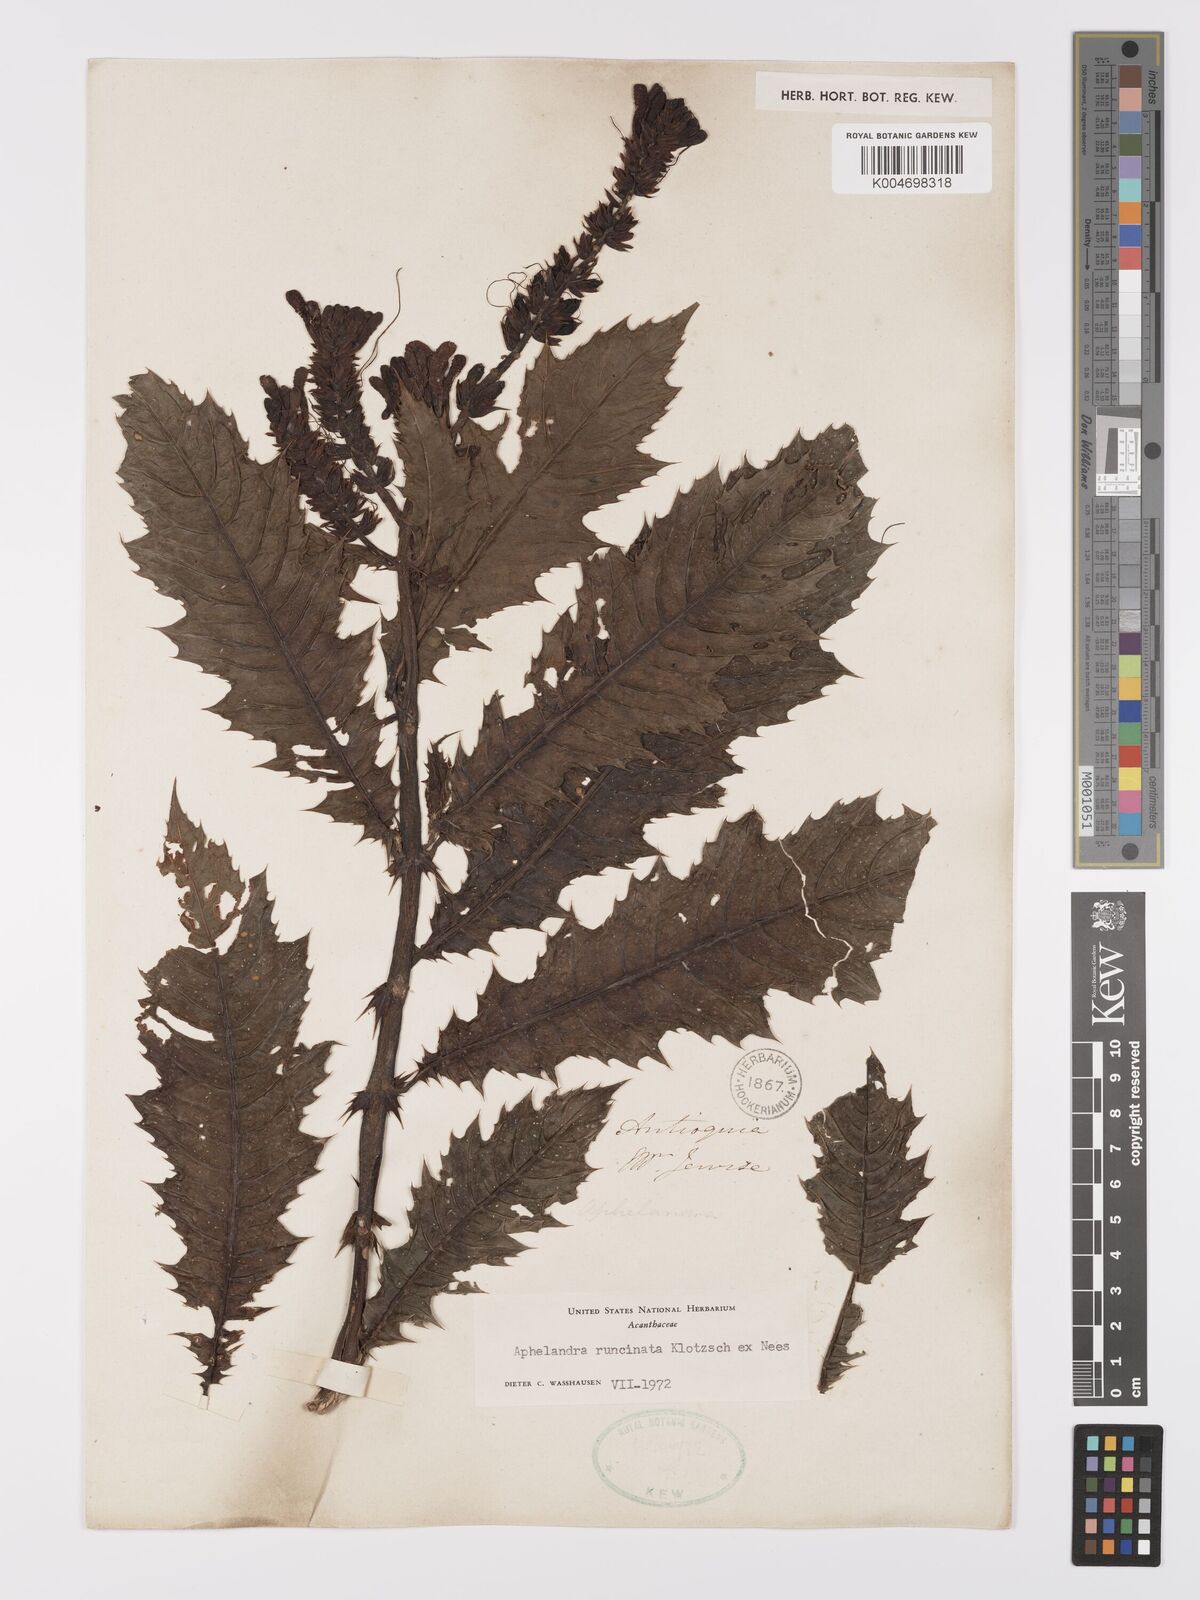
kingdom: Plantae
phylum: Tracheophyta
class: Magnoliopsida
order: Lamiales
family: Acanthaceae
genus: Aphelandra
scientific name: Aphelandra runcinata
